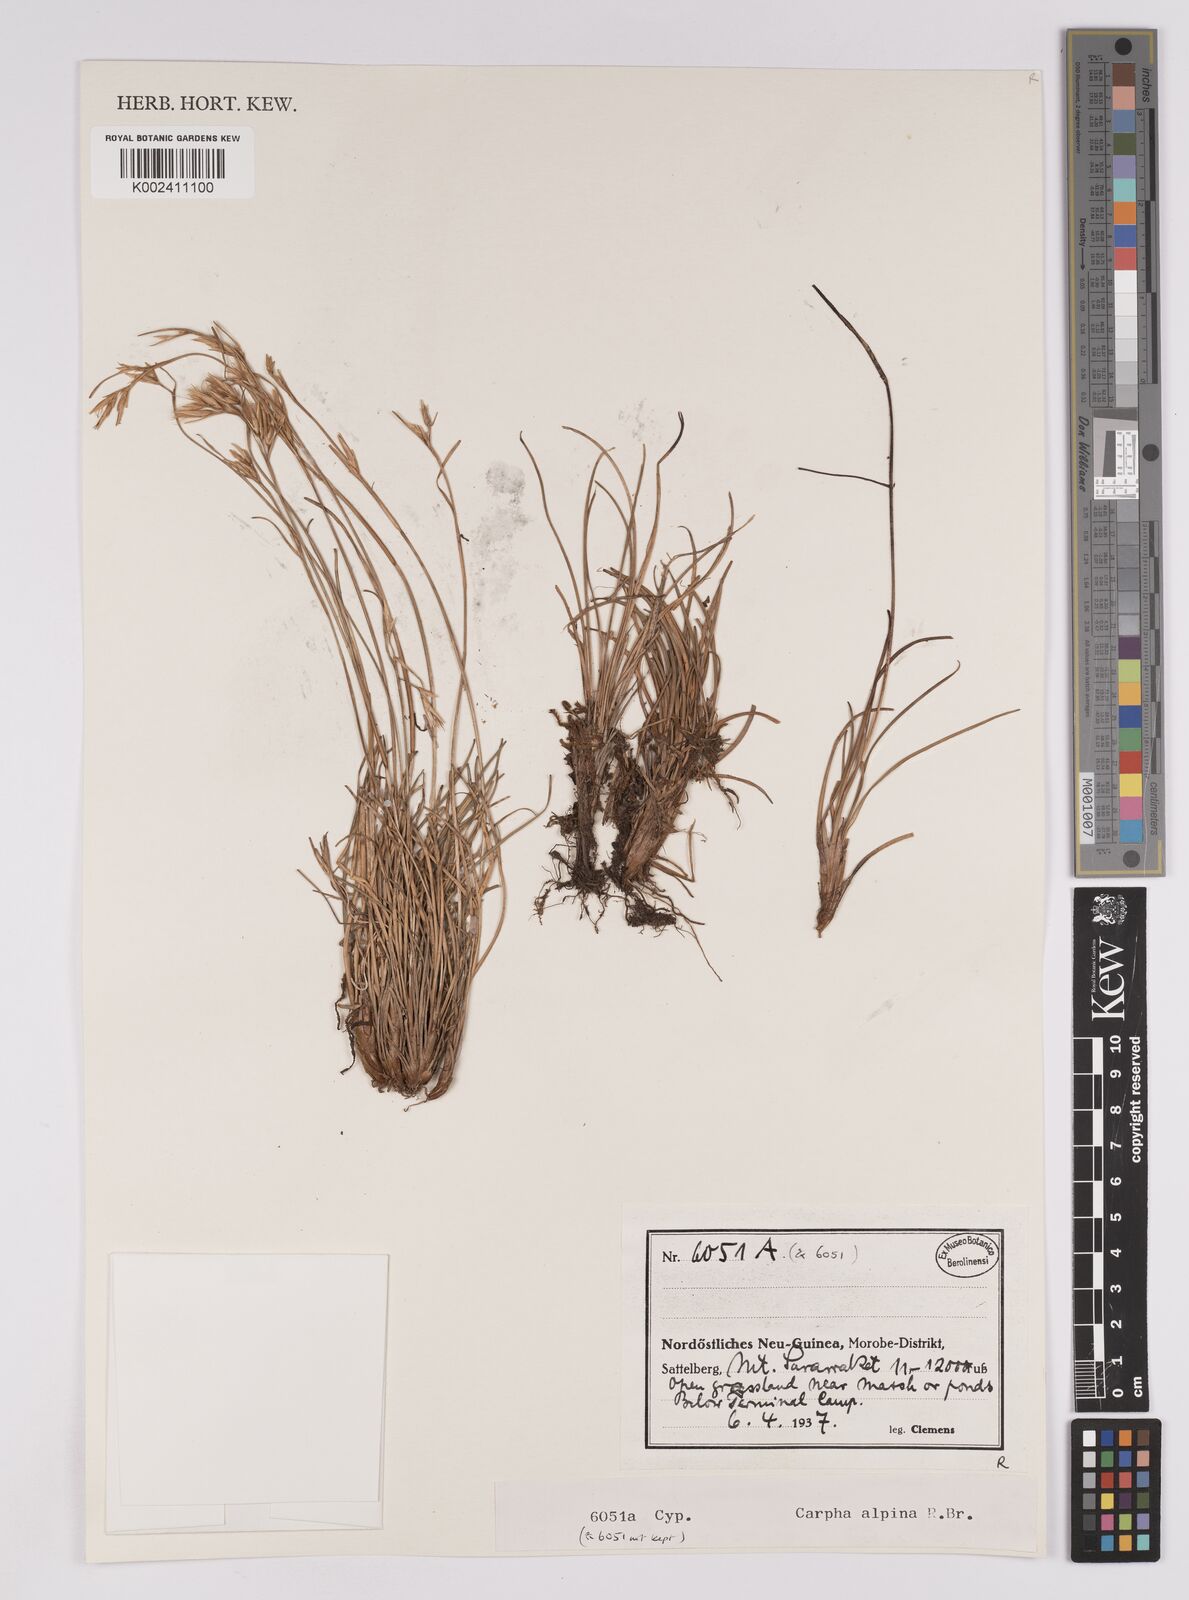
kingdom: Plantae
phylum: Tracheophyta
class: Liliopsida
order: Poales
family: Cyperaceae
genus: Carpha
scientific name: Carpha alpina
